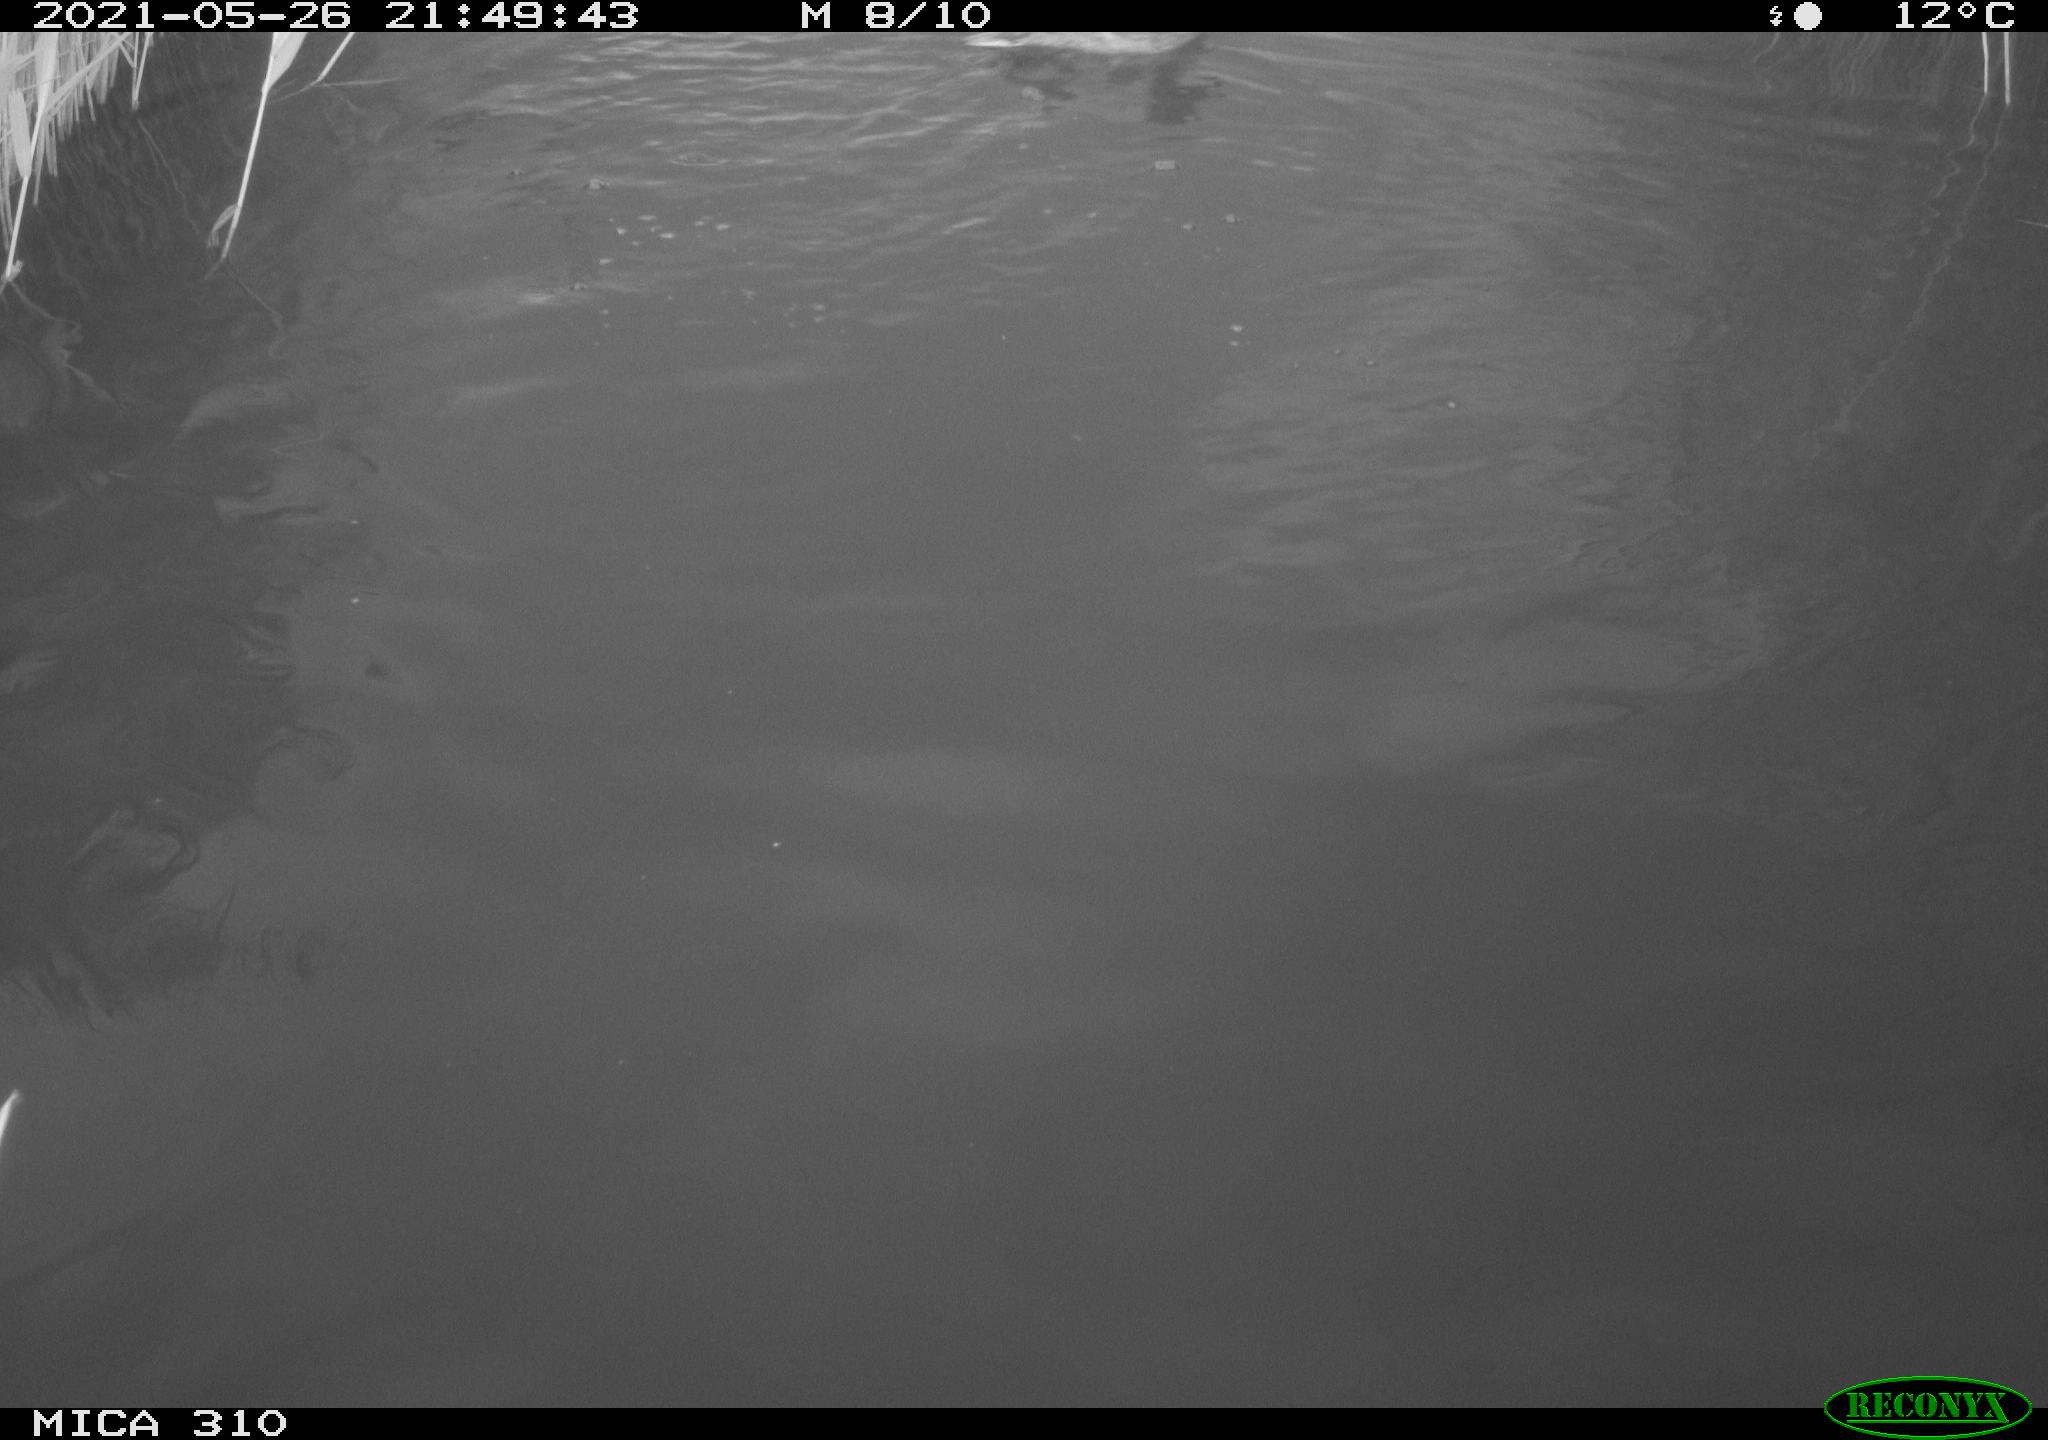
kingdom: Animalia
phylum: Chordata
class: Aves
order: Anseriformes
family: Anatidae
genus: Anas
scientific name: Anas platyrhynchos
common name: Mallard
